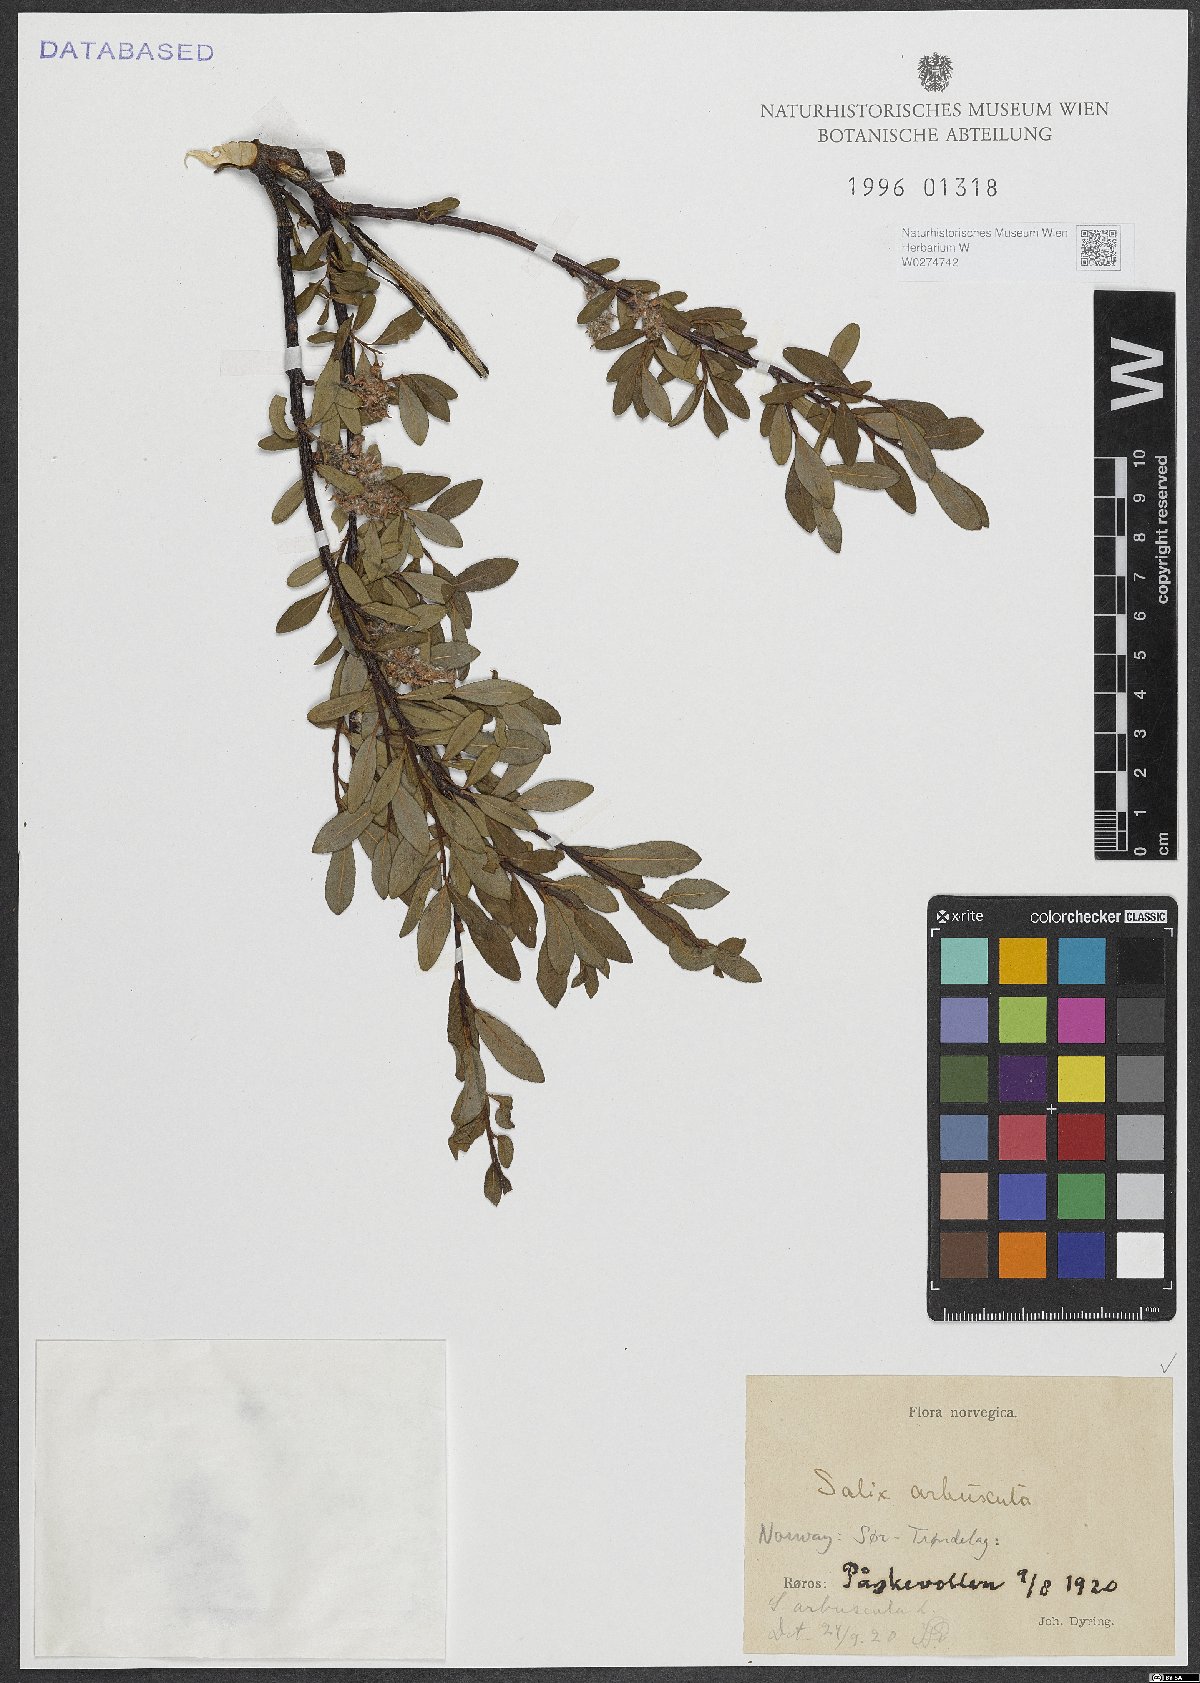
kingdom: Plantae
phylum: Tracheophyta
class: Magnoliopsida
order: Malpighiales
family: Salicaceae
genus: Salix
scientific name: Salix arbuscula
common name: Mountain willow
